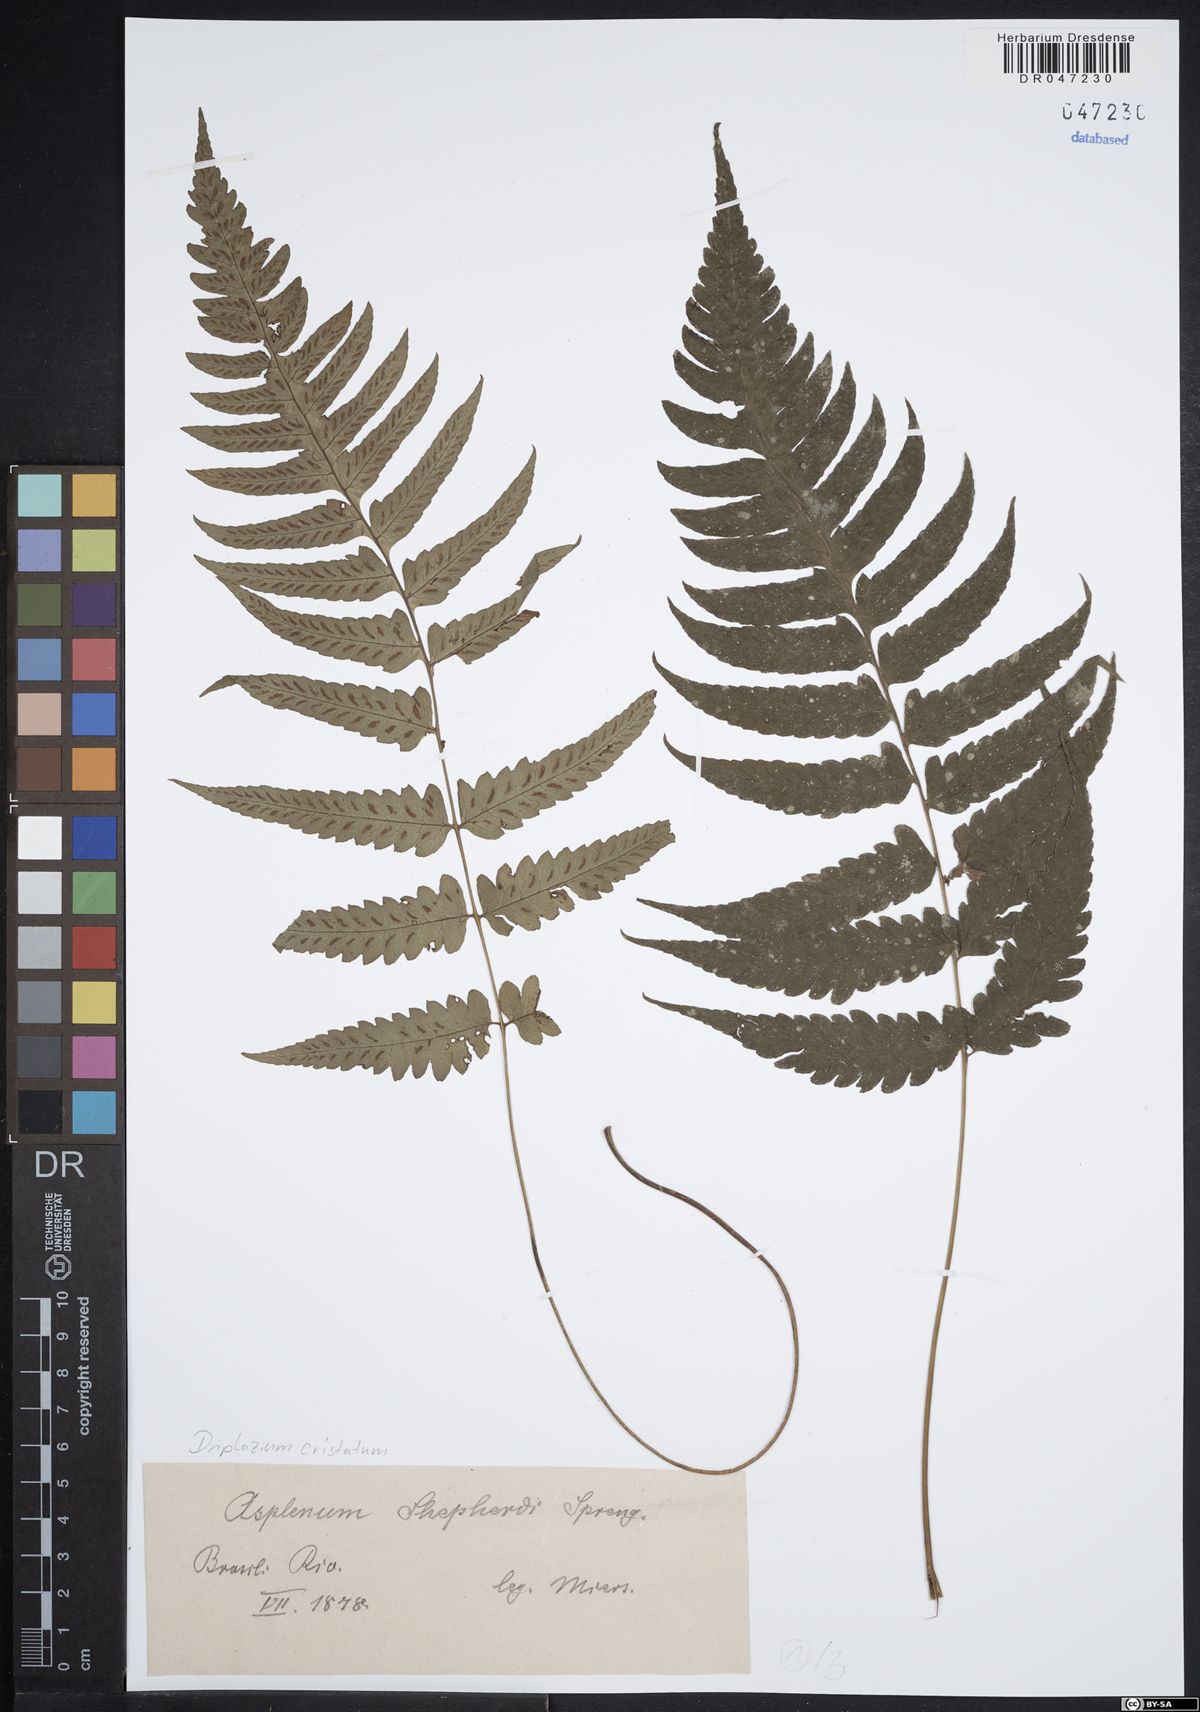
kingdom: Plantae
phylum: Tracheophyta
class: Polypodiopsida
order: Polypodiales
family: Athyriaceae
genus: Diplazium
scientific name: Diplazium cristatum
